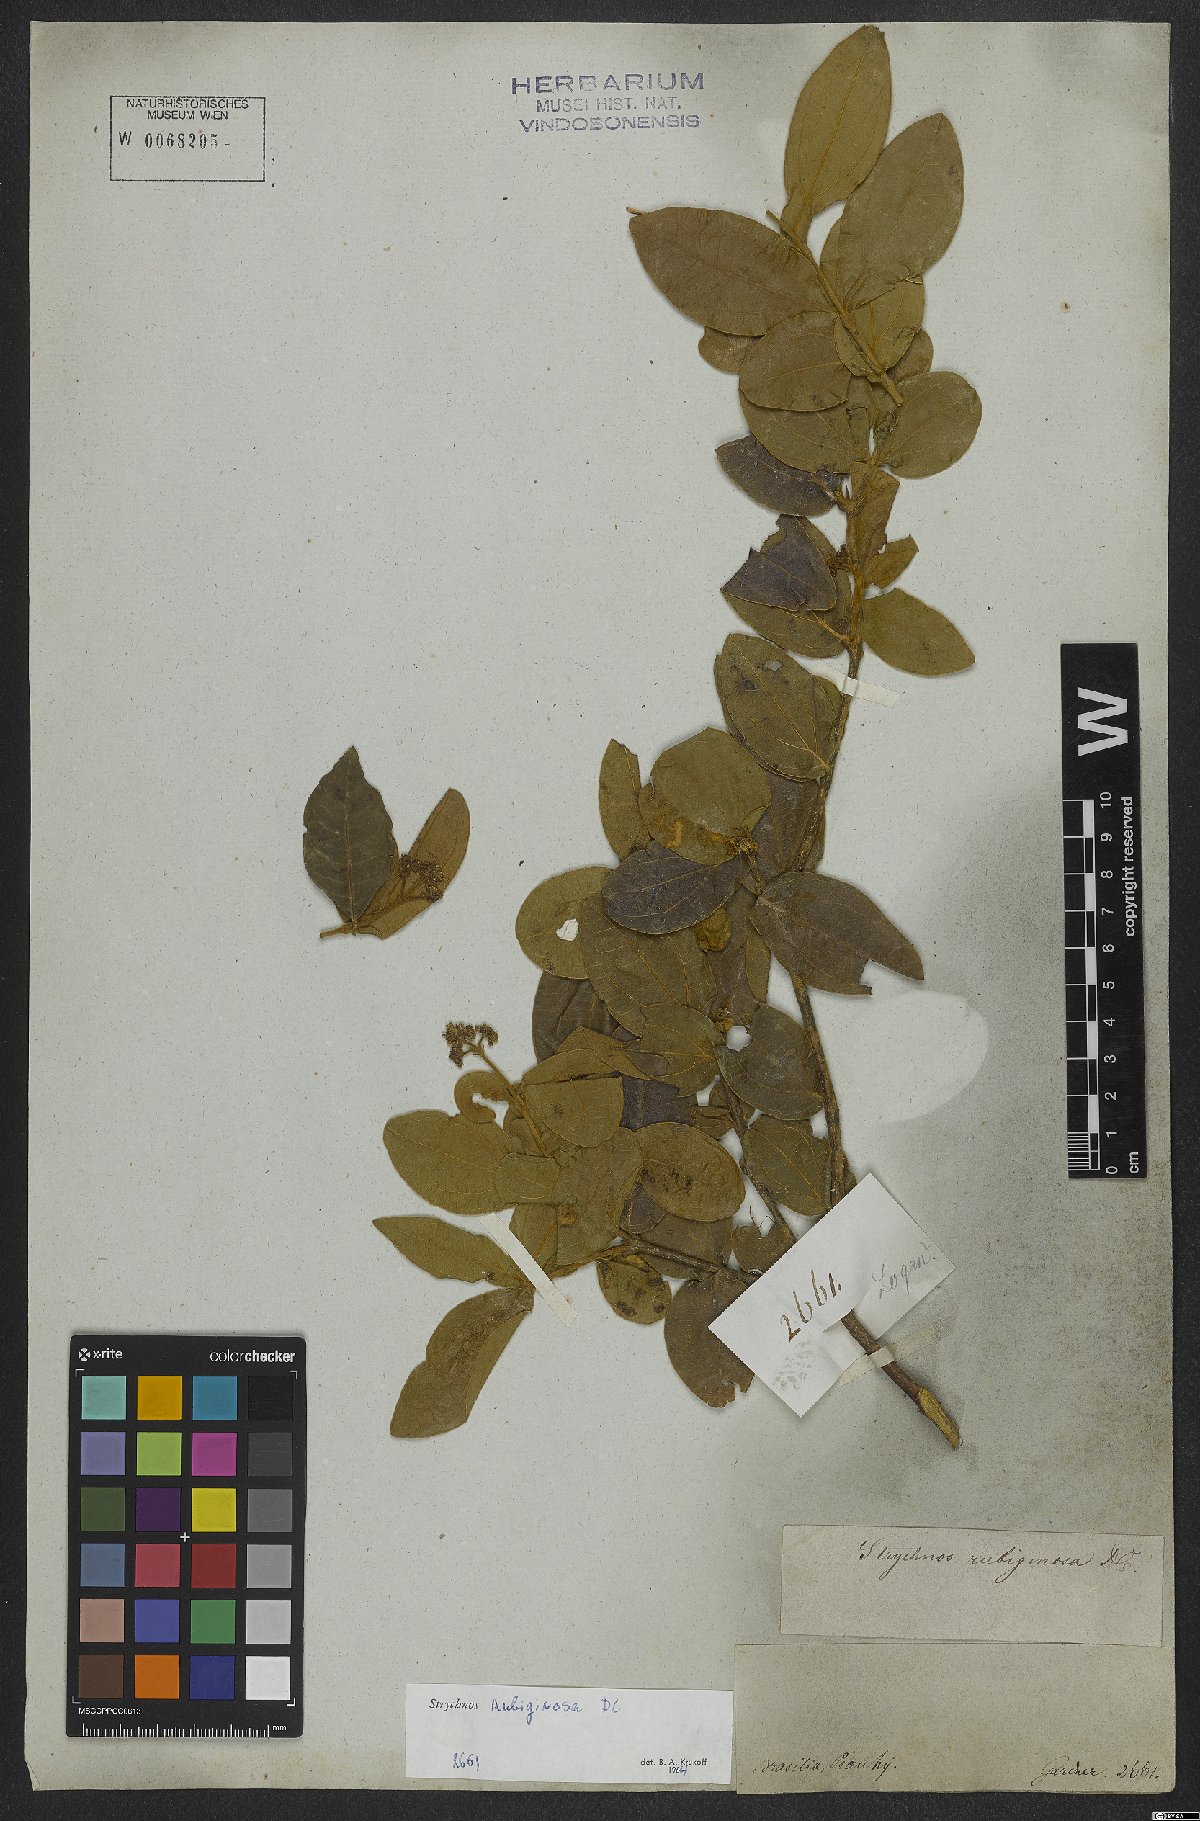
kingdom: Plantae
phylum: Tracheophyta
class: Magnoliopsida
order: Gentianales
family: Loganiaceae
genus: Strychnos
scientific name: Strychnos rubiginosa
